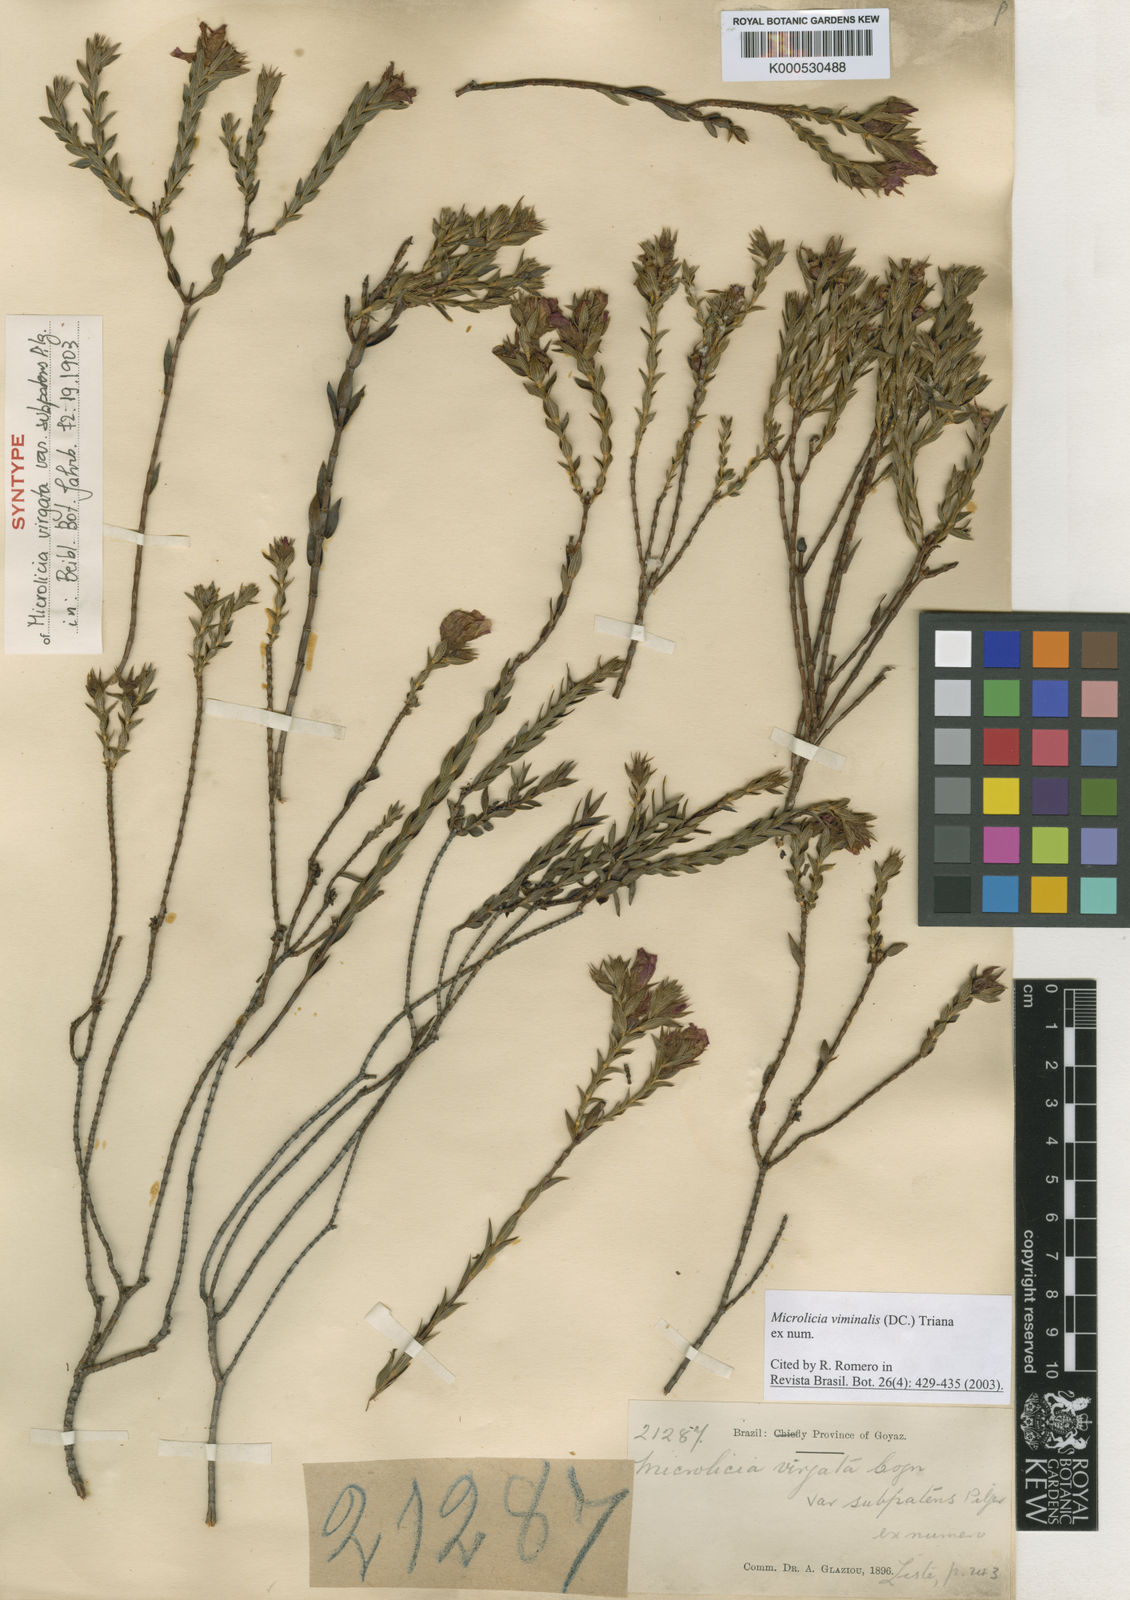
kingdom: Plantae
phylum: Tracheophyta
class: Magnoliopsida
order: Myrtales
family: Melastomataceae
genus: Microlicia
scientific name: Microlicia viminalis
